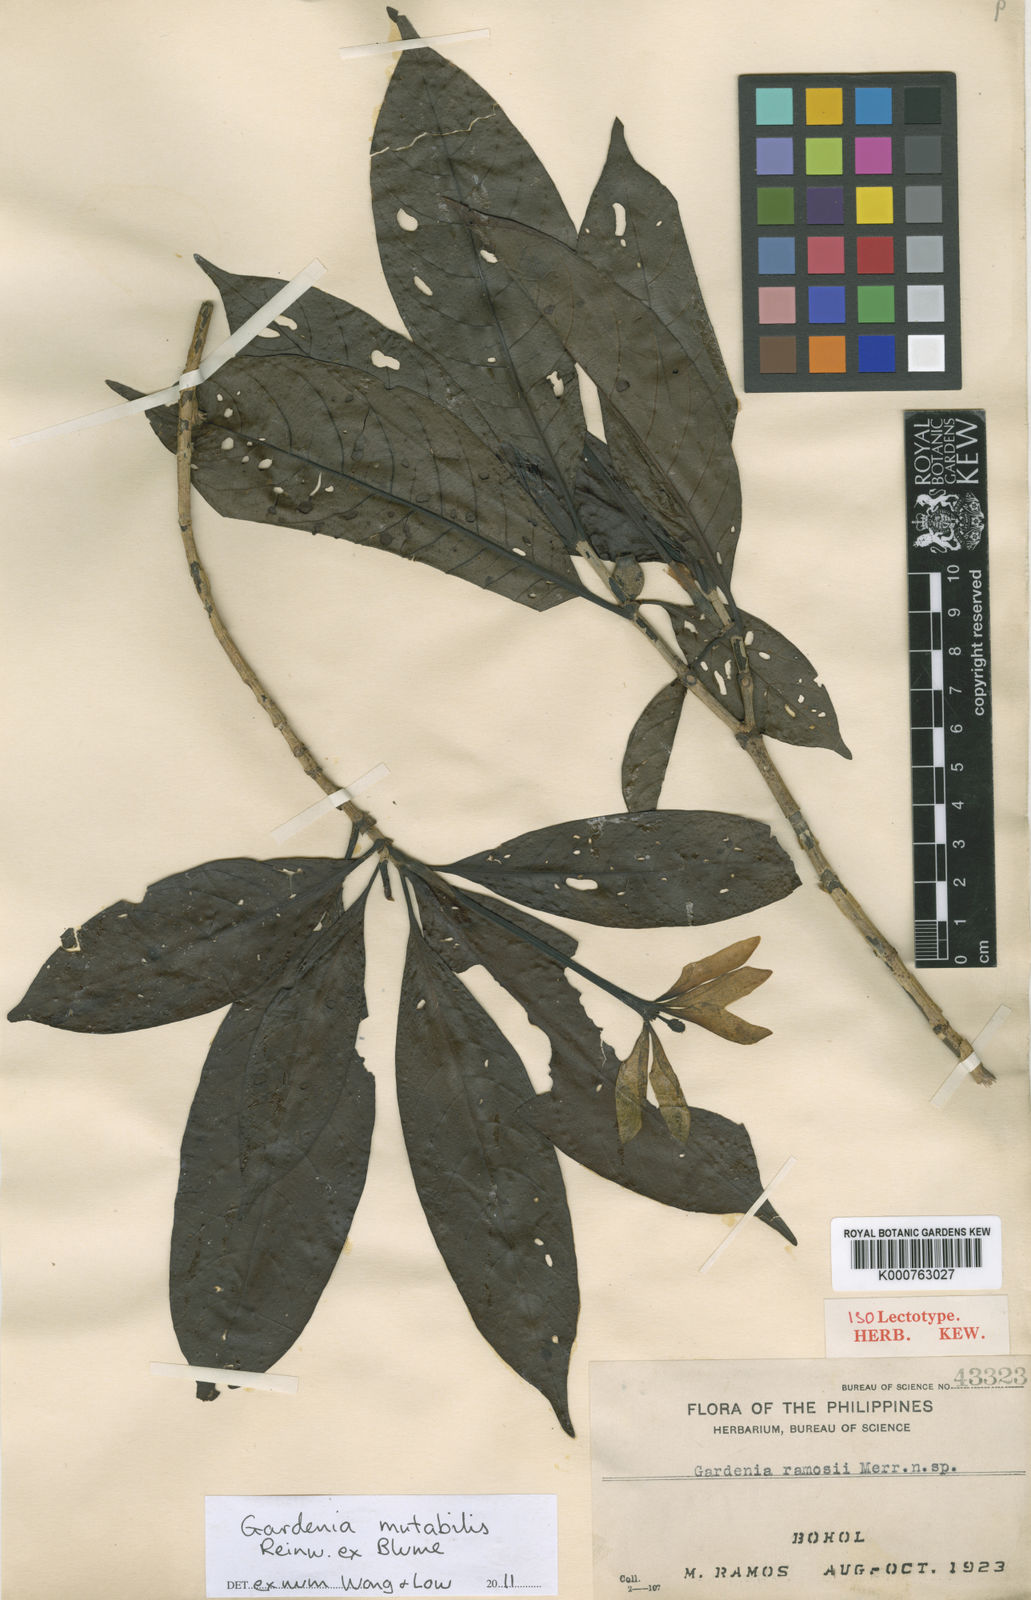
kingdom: Plantae
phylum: Tracheophyta
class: Magnoliopsida
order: Gentianales
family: Rubiaceae
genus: Gardenia
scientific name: Gardenia mutabilis
